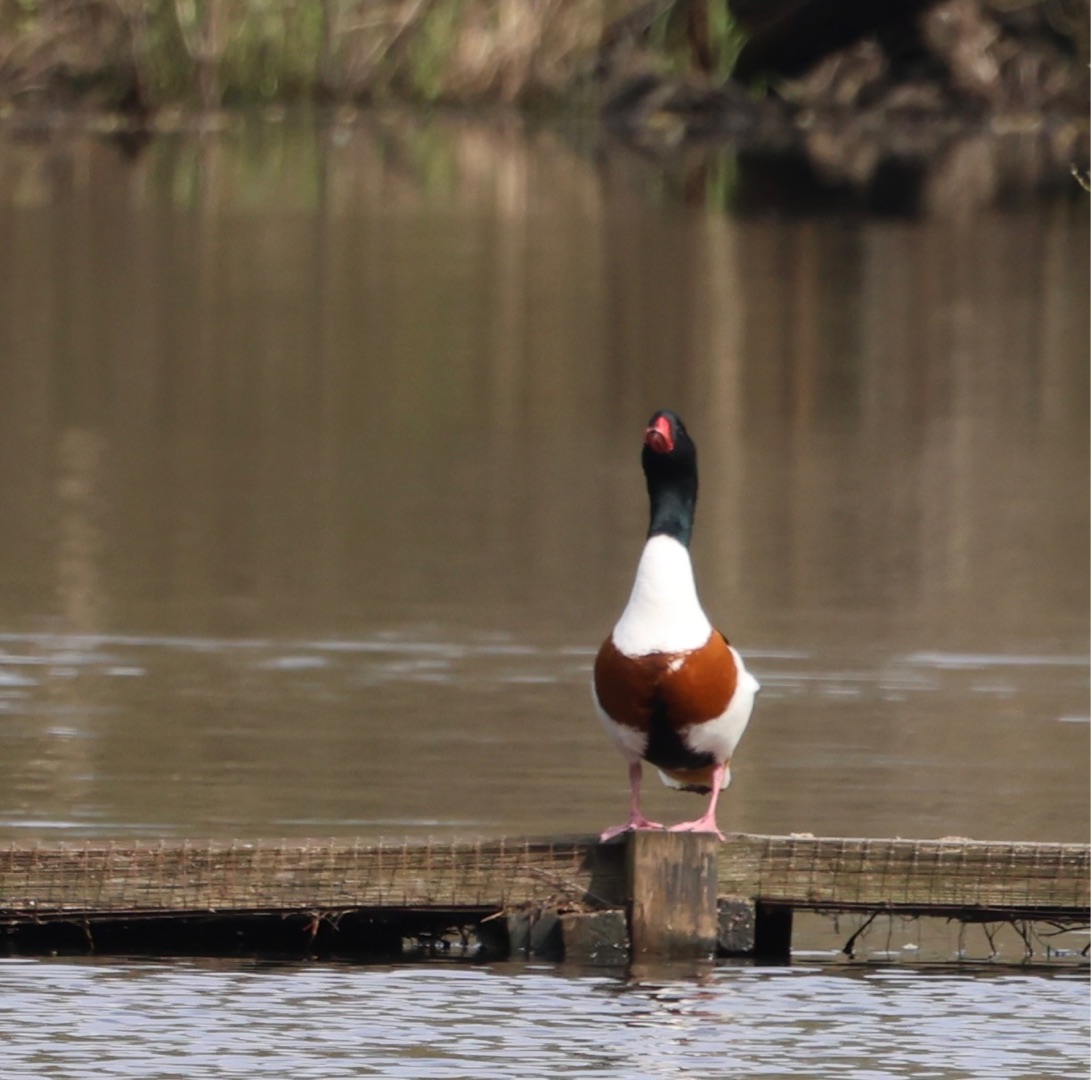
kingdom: Animalia
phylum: Chordata
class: Aves
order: Anseriformes
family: Anatidae
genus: Tadorna
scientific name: Tadorna tadorna
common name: Gravand
